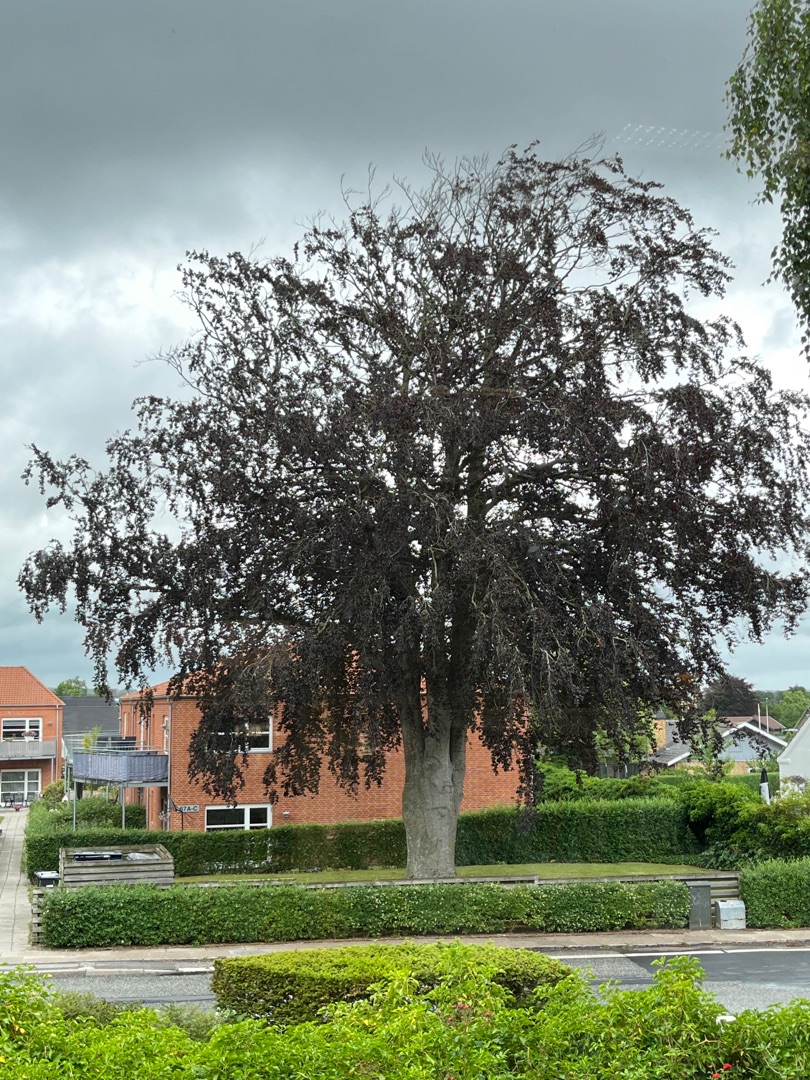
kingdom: Plantae
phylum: Tracheophyta
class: Magnoliopsida
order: Fagales
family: Fagaceae
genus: Fagus
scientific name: Fagus sylvatica
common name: Bøg
